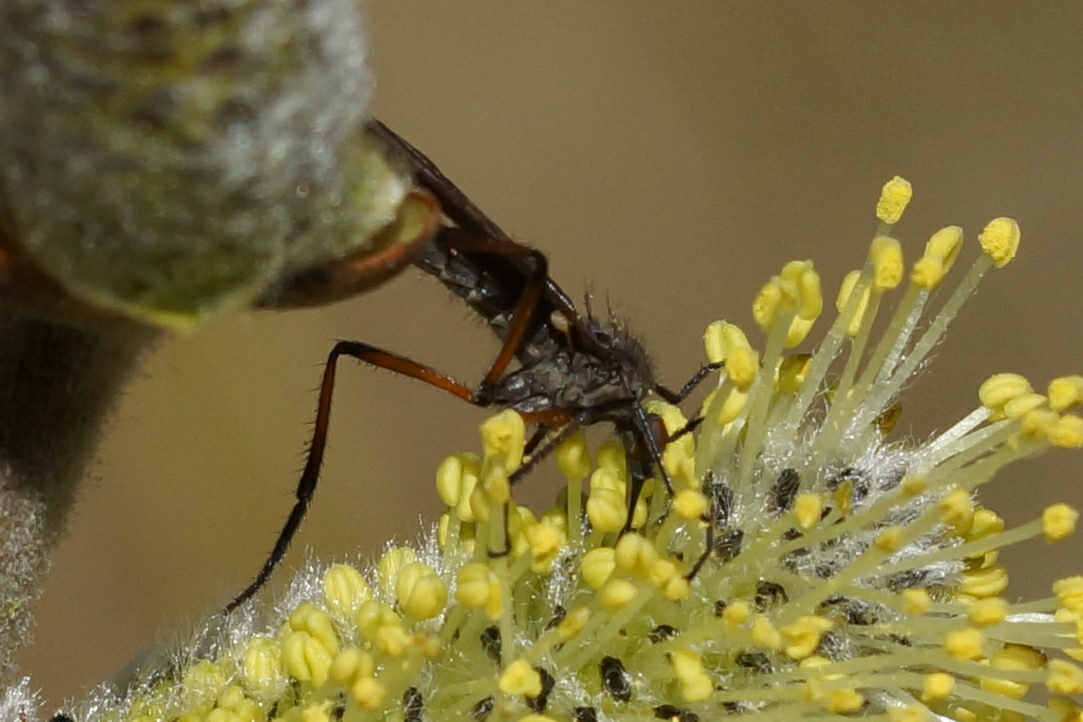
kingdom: Animalia
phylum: Arthropoda
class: Insecta
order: Diptera
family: Empididae
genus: Empis
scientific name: Empis borealis
